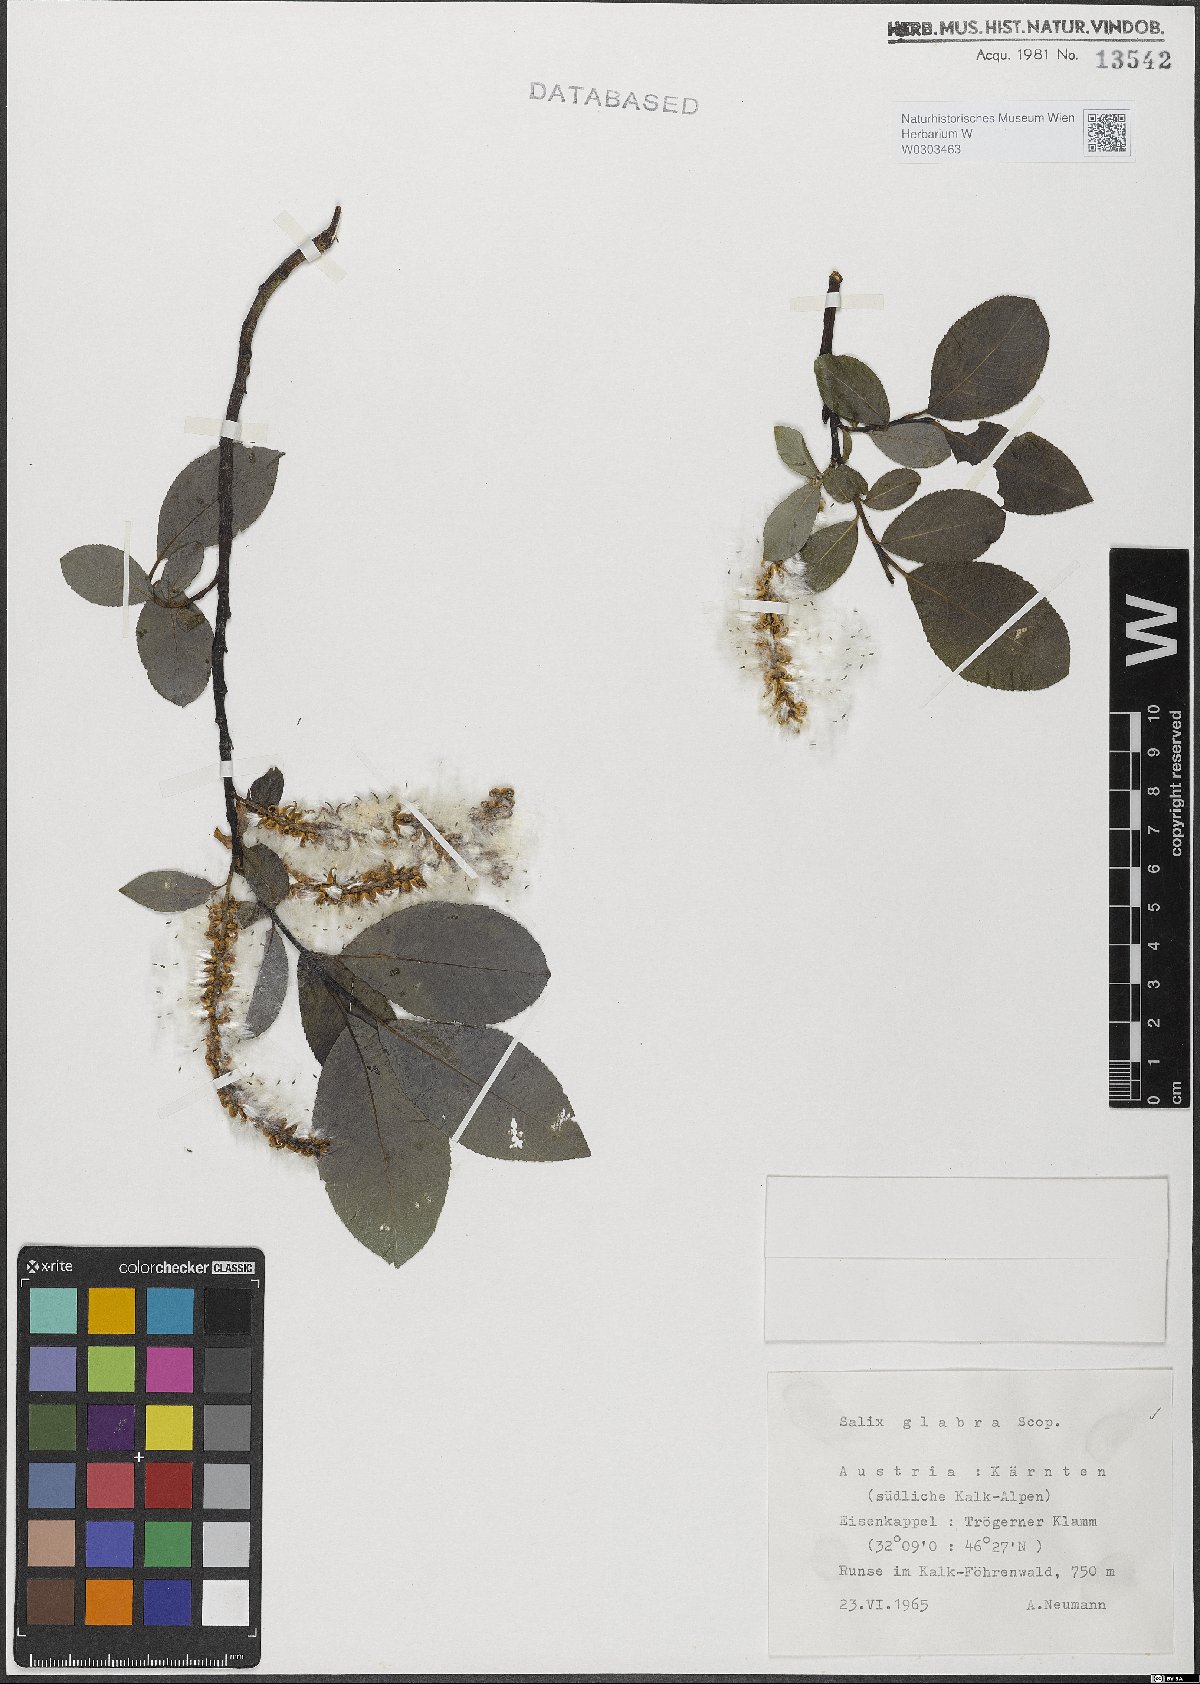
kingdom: Plantae
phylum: Tracheophyta
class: Magnoliopsida
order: Malpighiales
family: Salicaceae
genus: Salix
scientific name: Salix glabra
